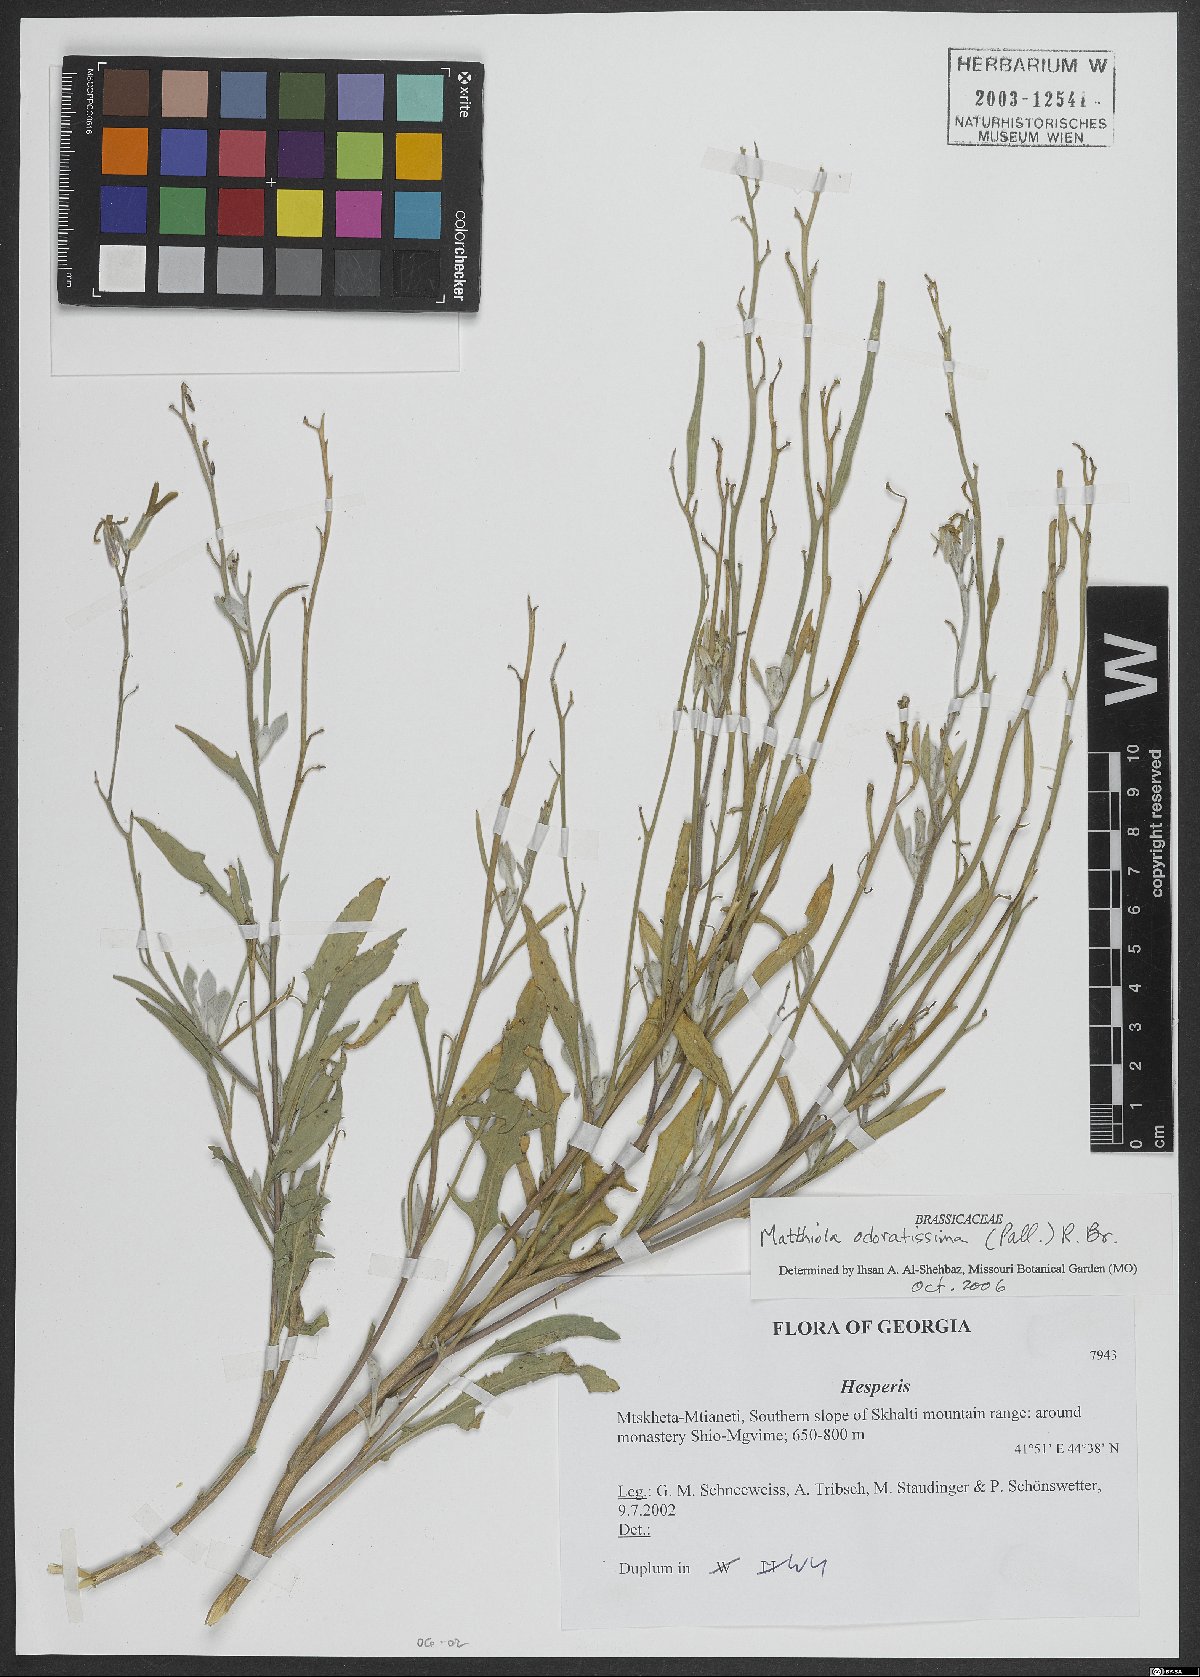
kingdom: Plantae
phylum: Tracheophyta
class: Magnoliopsida
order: Brassicales
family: Brassicaceae
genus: Matthiola
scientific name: Matthiola odoratissima
